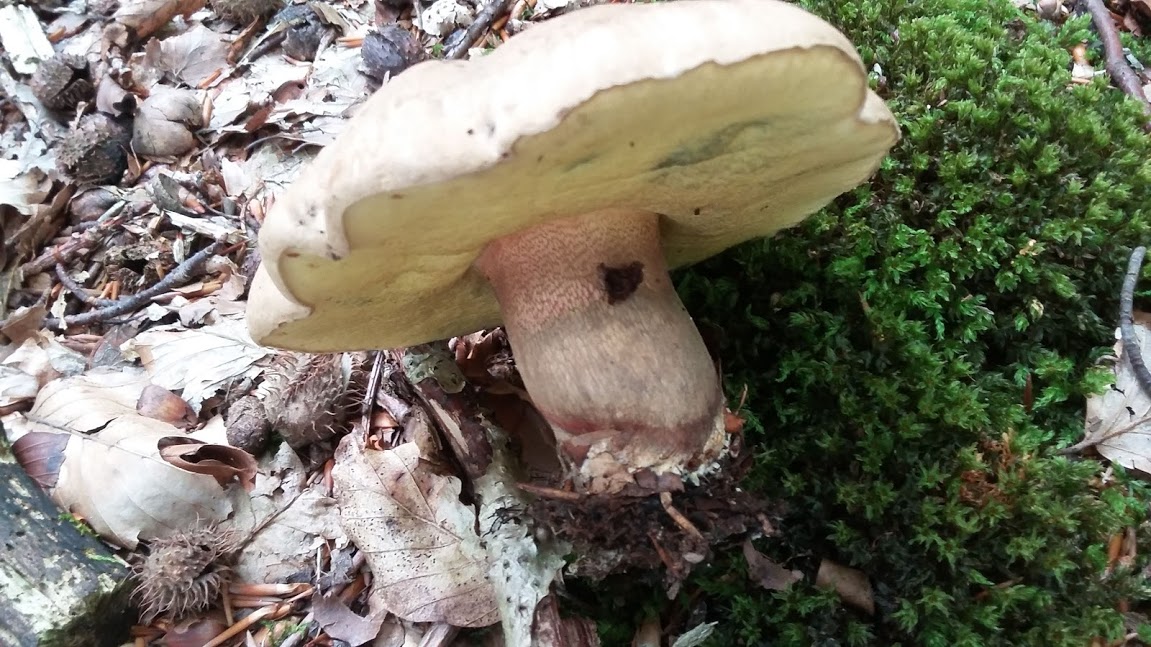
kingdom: Fungi
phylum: Basidiomycota
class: Agaricomycetes
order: Boletales
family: Boletaceae
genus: Caloboletus
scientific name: Caloboletus calopus
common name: skønfodet rørhat
